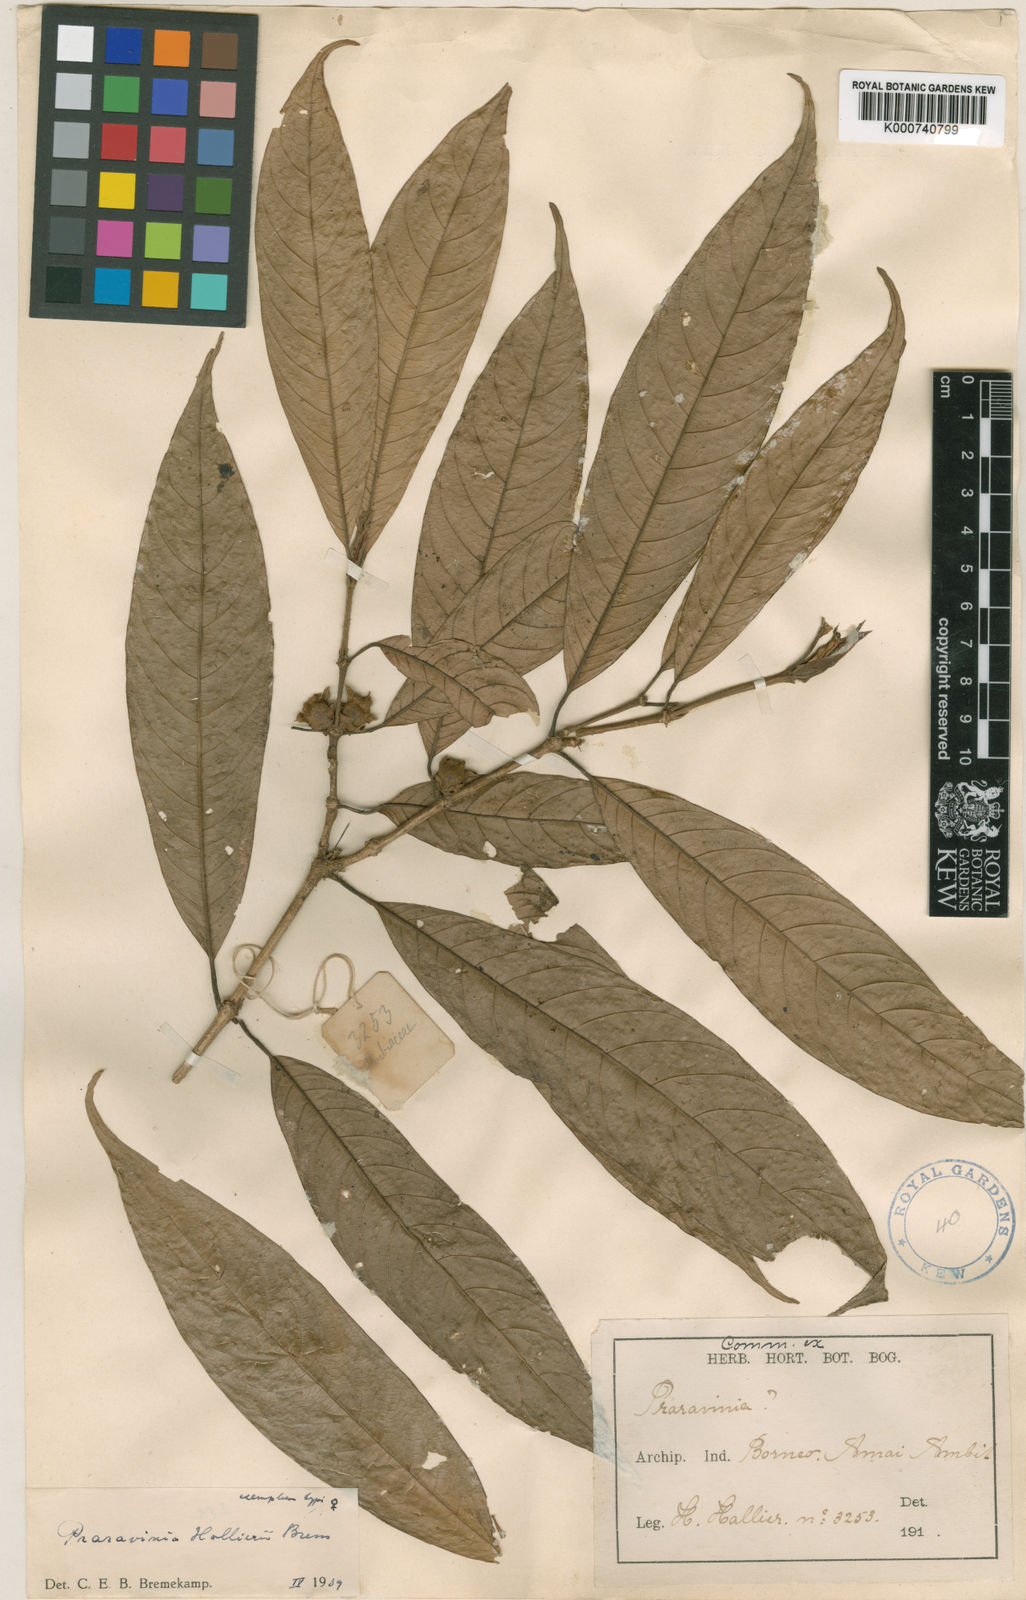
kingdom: Plantae
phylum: Tracheophyta
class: Magnoliopsida
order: Gentianales
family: Rubiaceae
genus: Praravinia
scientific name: Praravinia hallieri
